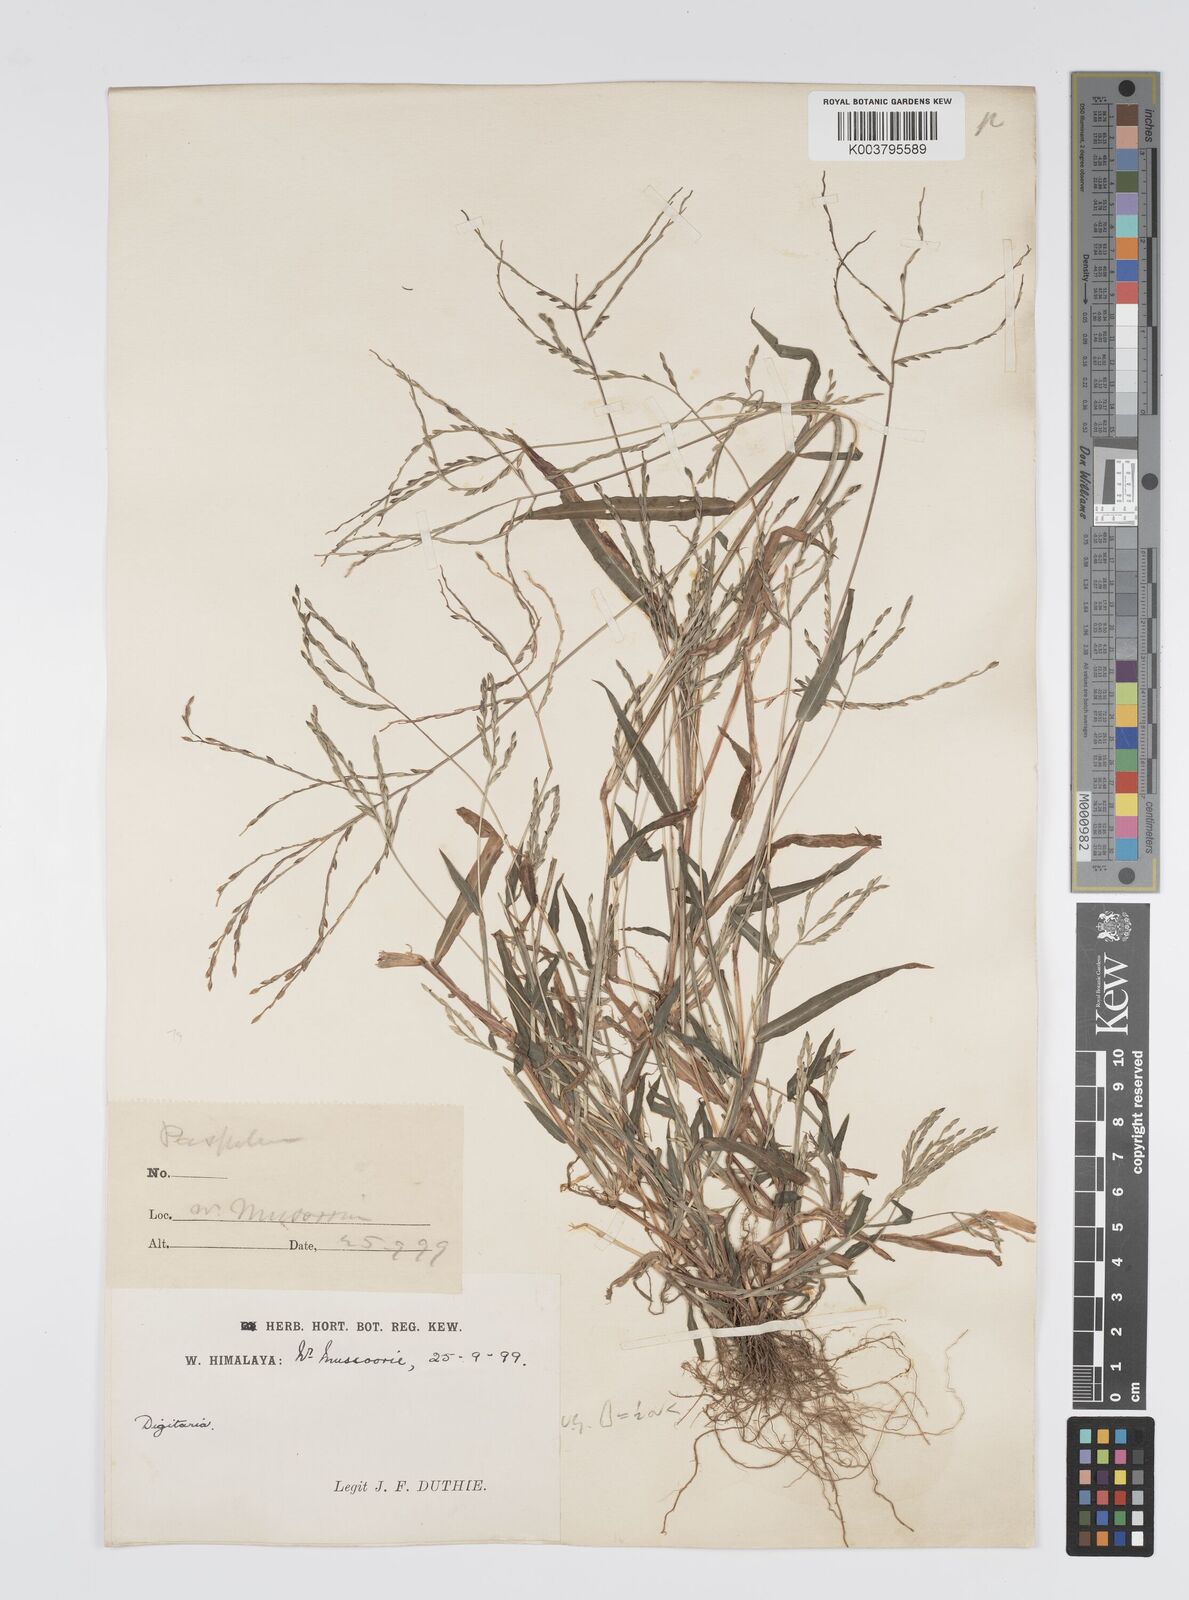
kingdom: Plantae
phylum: Tracheophyta
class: Liliopsida
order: Poales
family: Poaceae
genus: Digitaria
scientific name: Digitaria sanguinalis
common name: Hairy crabgrass
